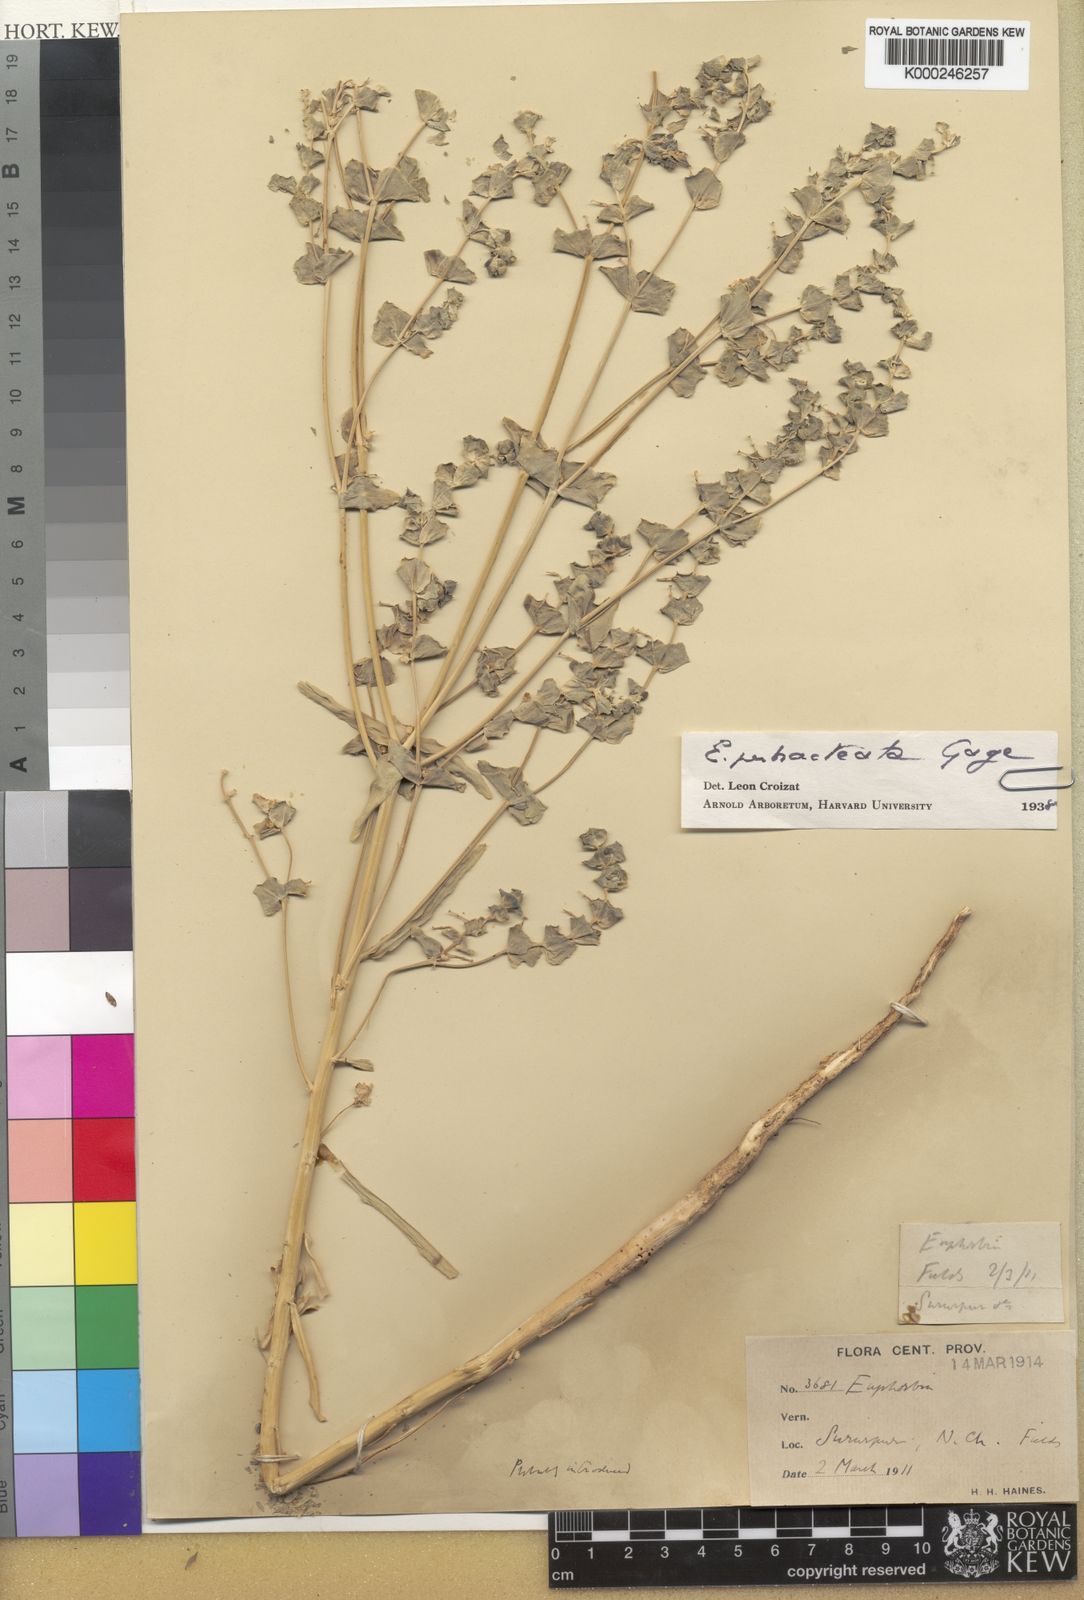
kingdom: Plantae
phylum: Tracheophyta
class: Magnoliopsida
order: Malpighiales
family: Euphorbiaceae
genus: Euphorbia
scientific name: Euphorbia perbracteata
